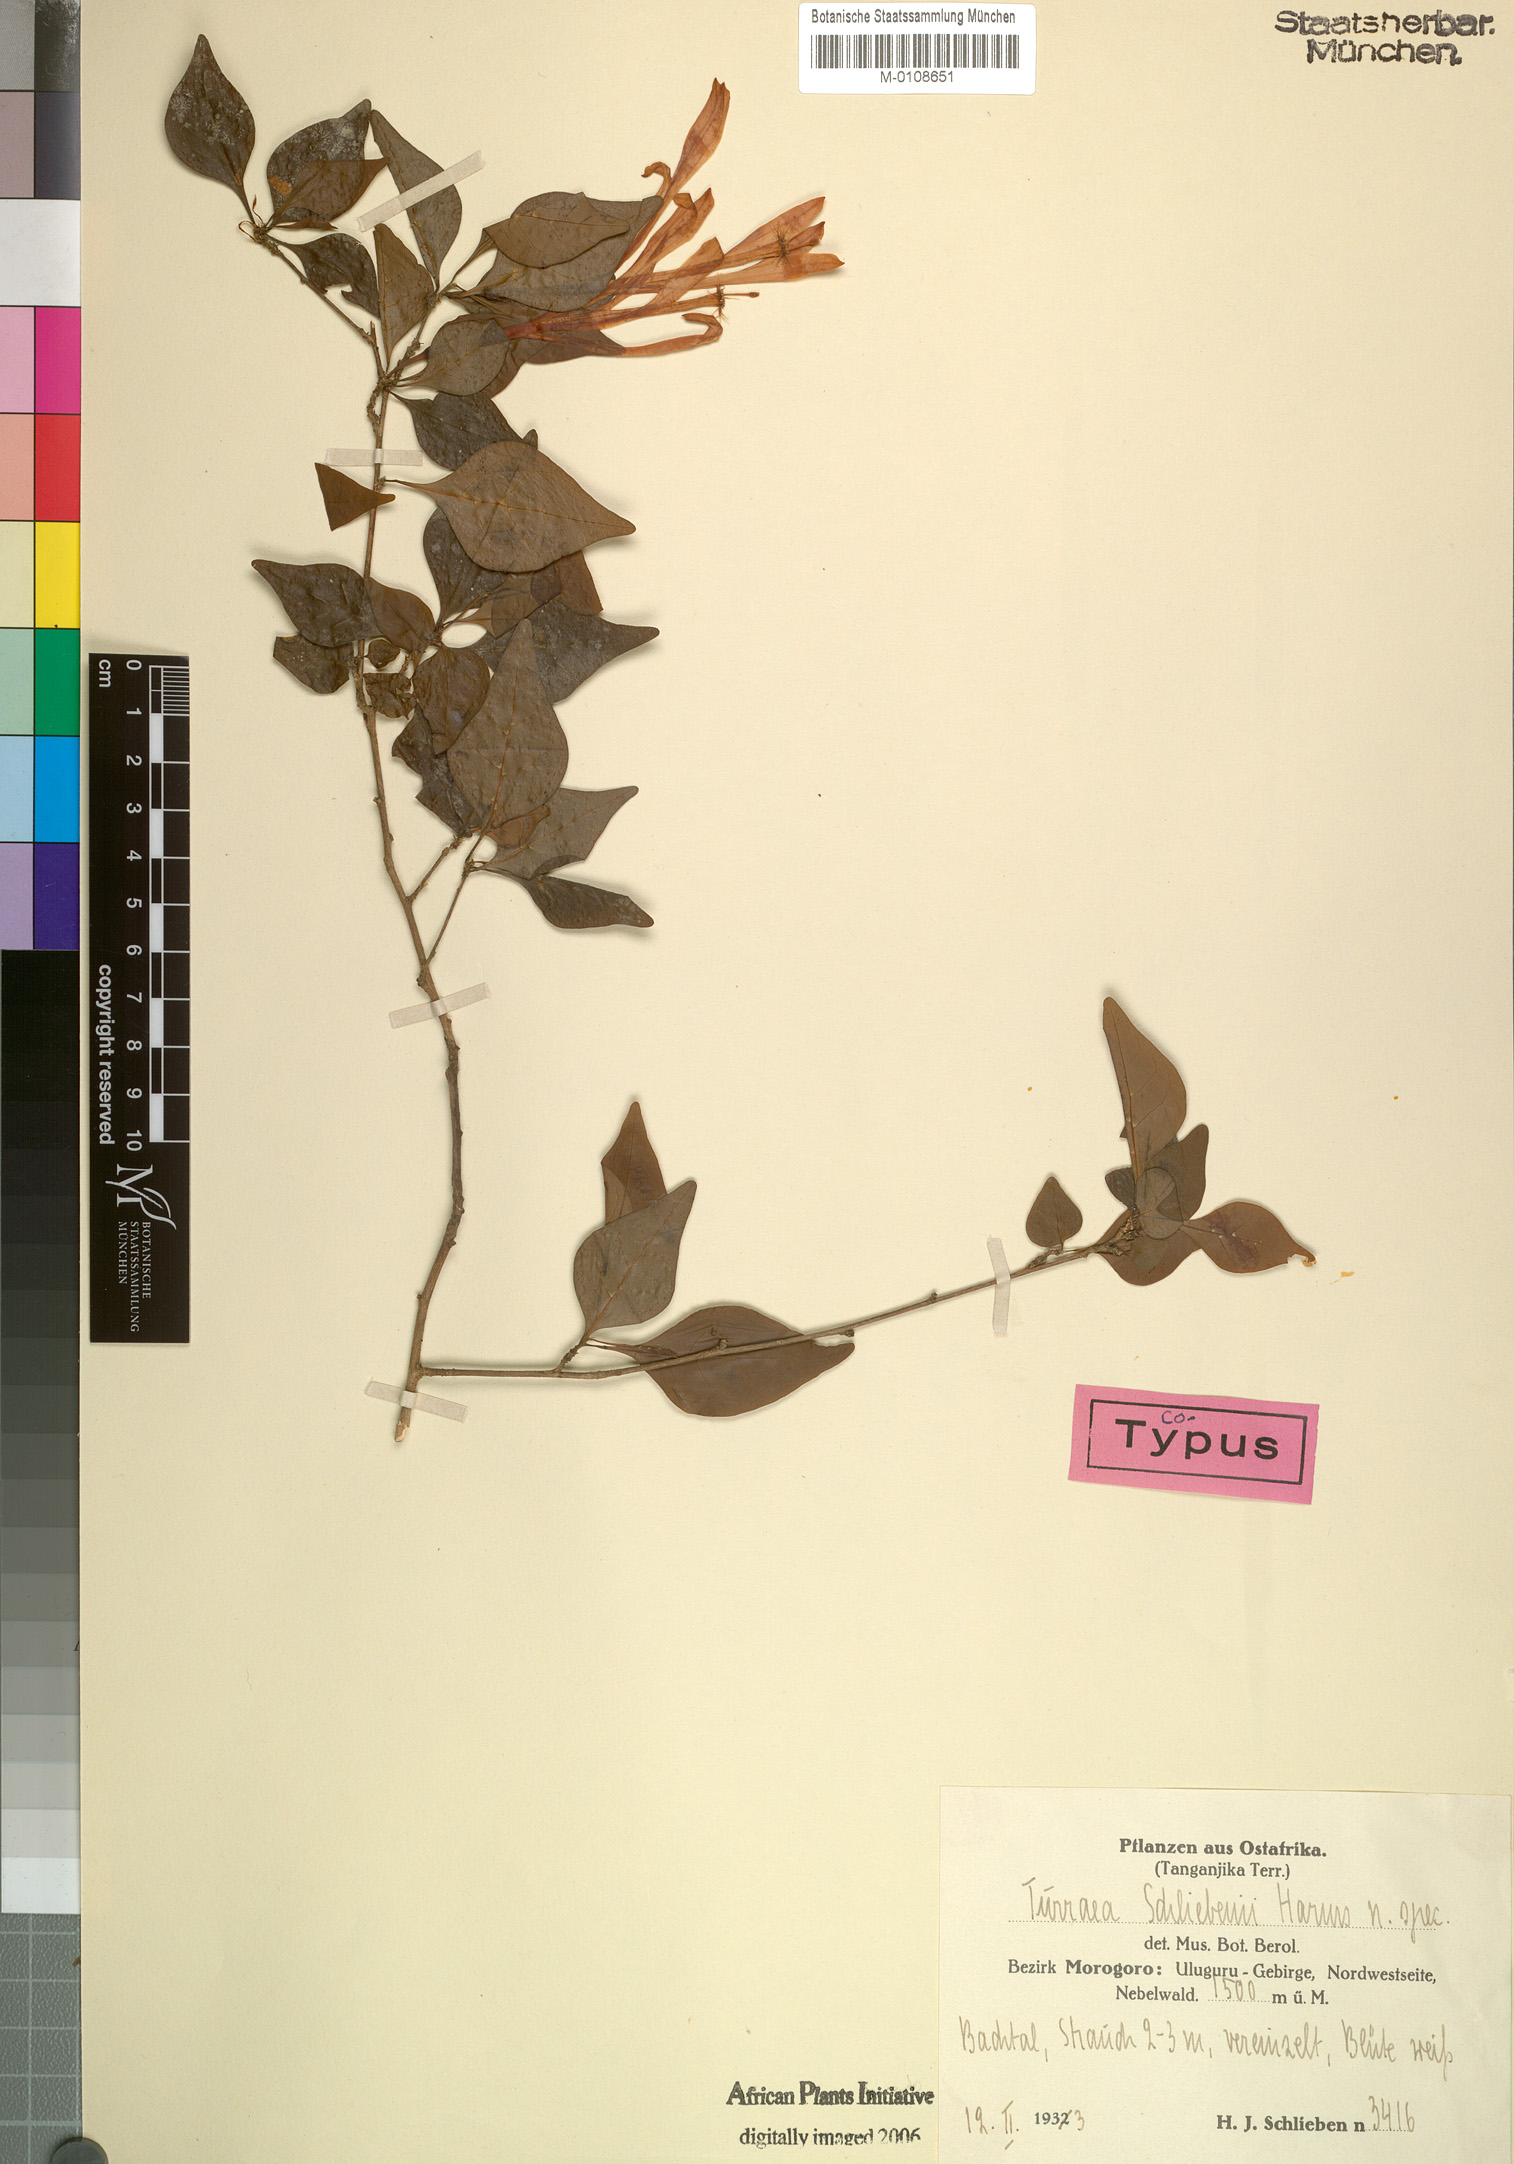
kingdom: Plantae
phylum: Tracheophyta
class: Magnoliopsida
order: Sapindales
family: Meliaceae
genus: Turraea
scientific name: Turraea mombassana
